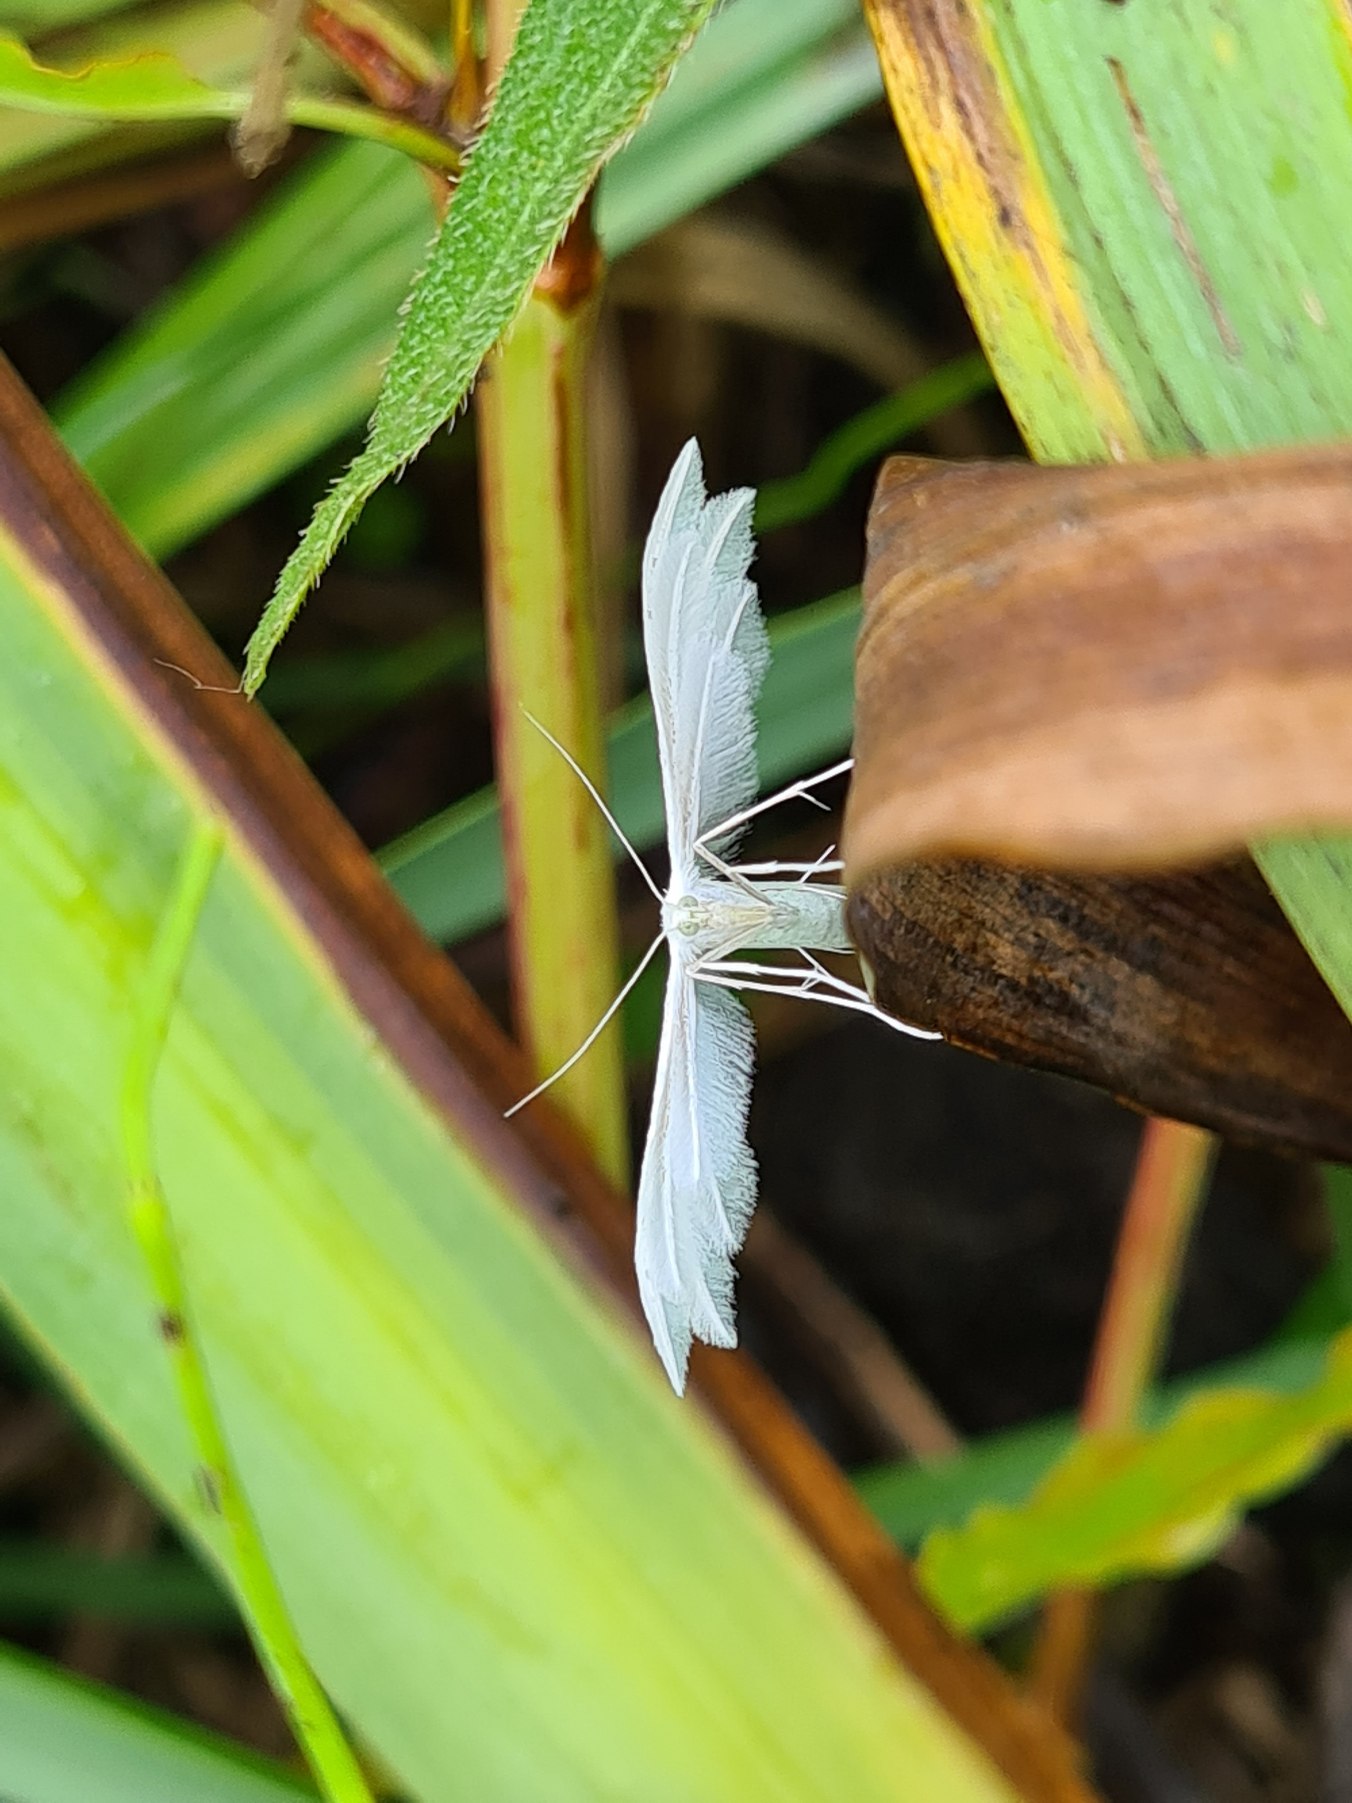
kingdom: Animalia
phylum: Arthropoda
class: Insecta
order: Lepidoptera
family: Pterophoridae
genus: Pterophorus
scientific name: Pterophorus pentadactyla
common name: Hvidt fjermøl
